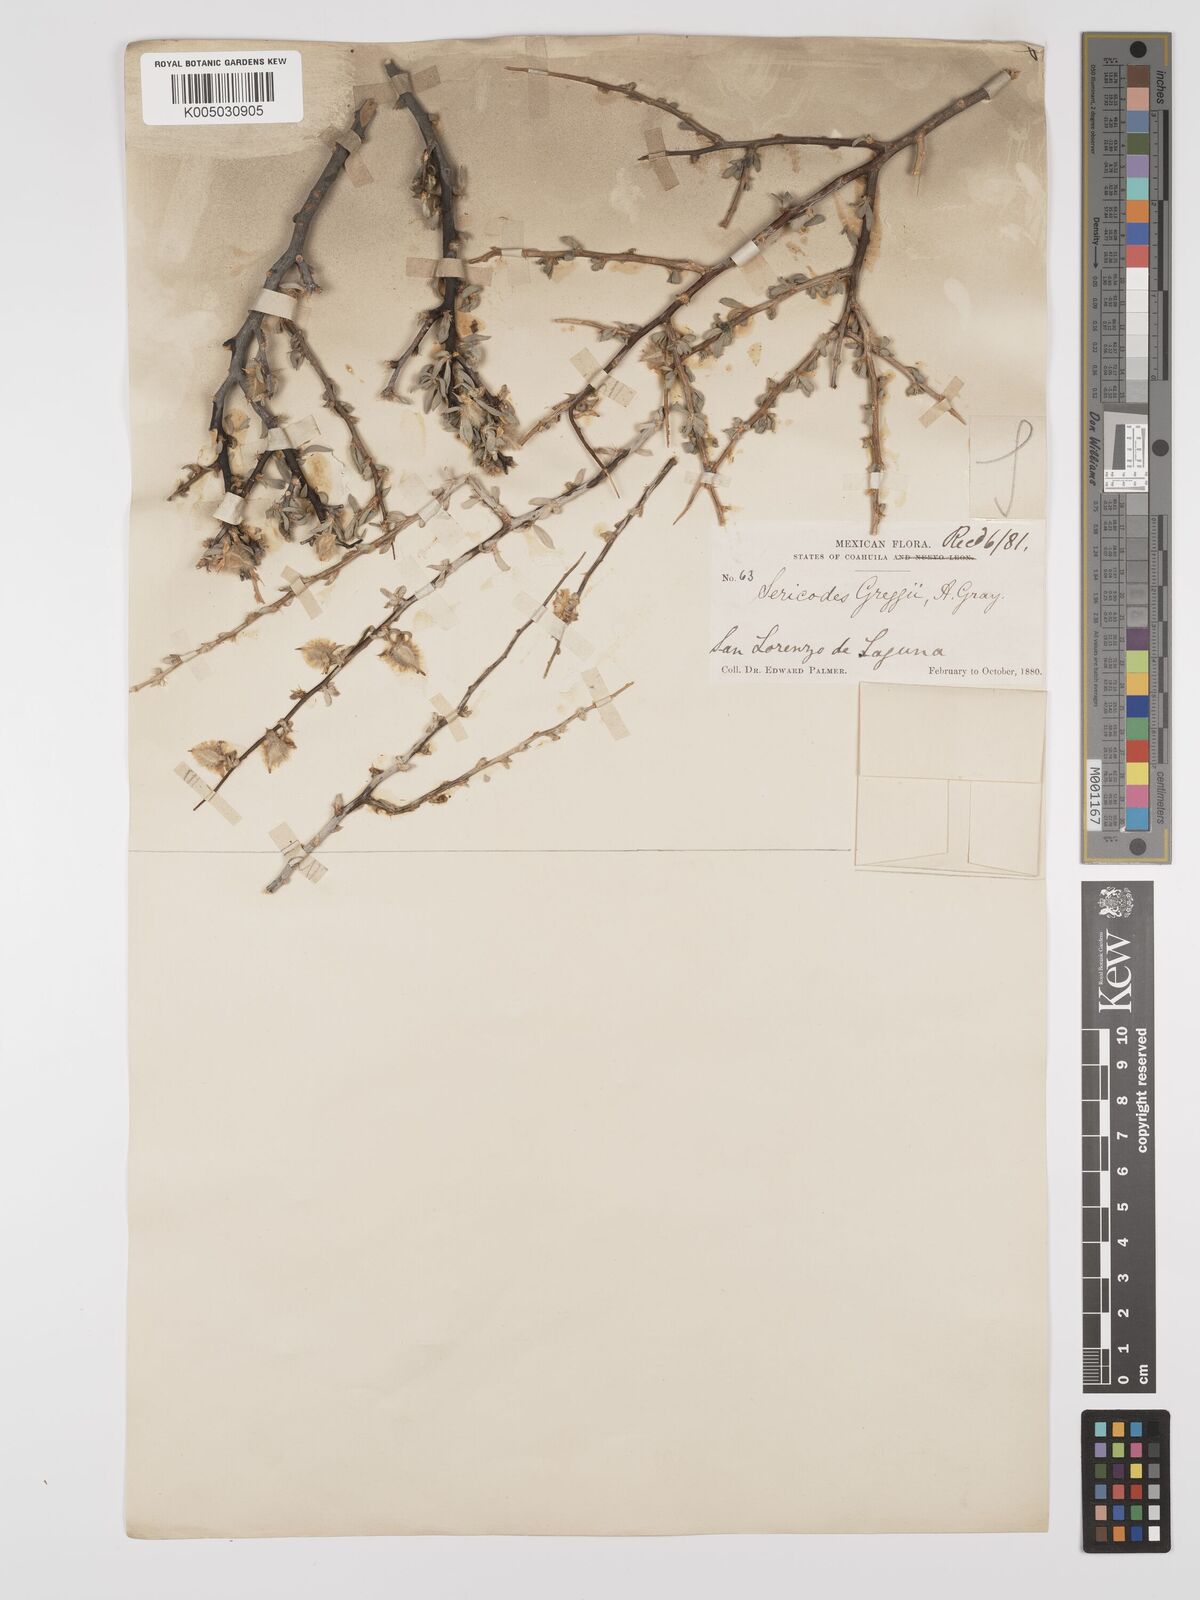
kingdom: Plantae
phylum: Tracheophyta
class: Magnoliopsida
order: Zygophyllales
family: Zygophyllaceae
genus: Sericodes
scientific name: Sericodes greggii
